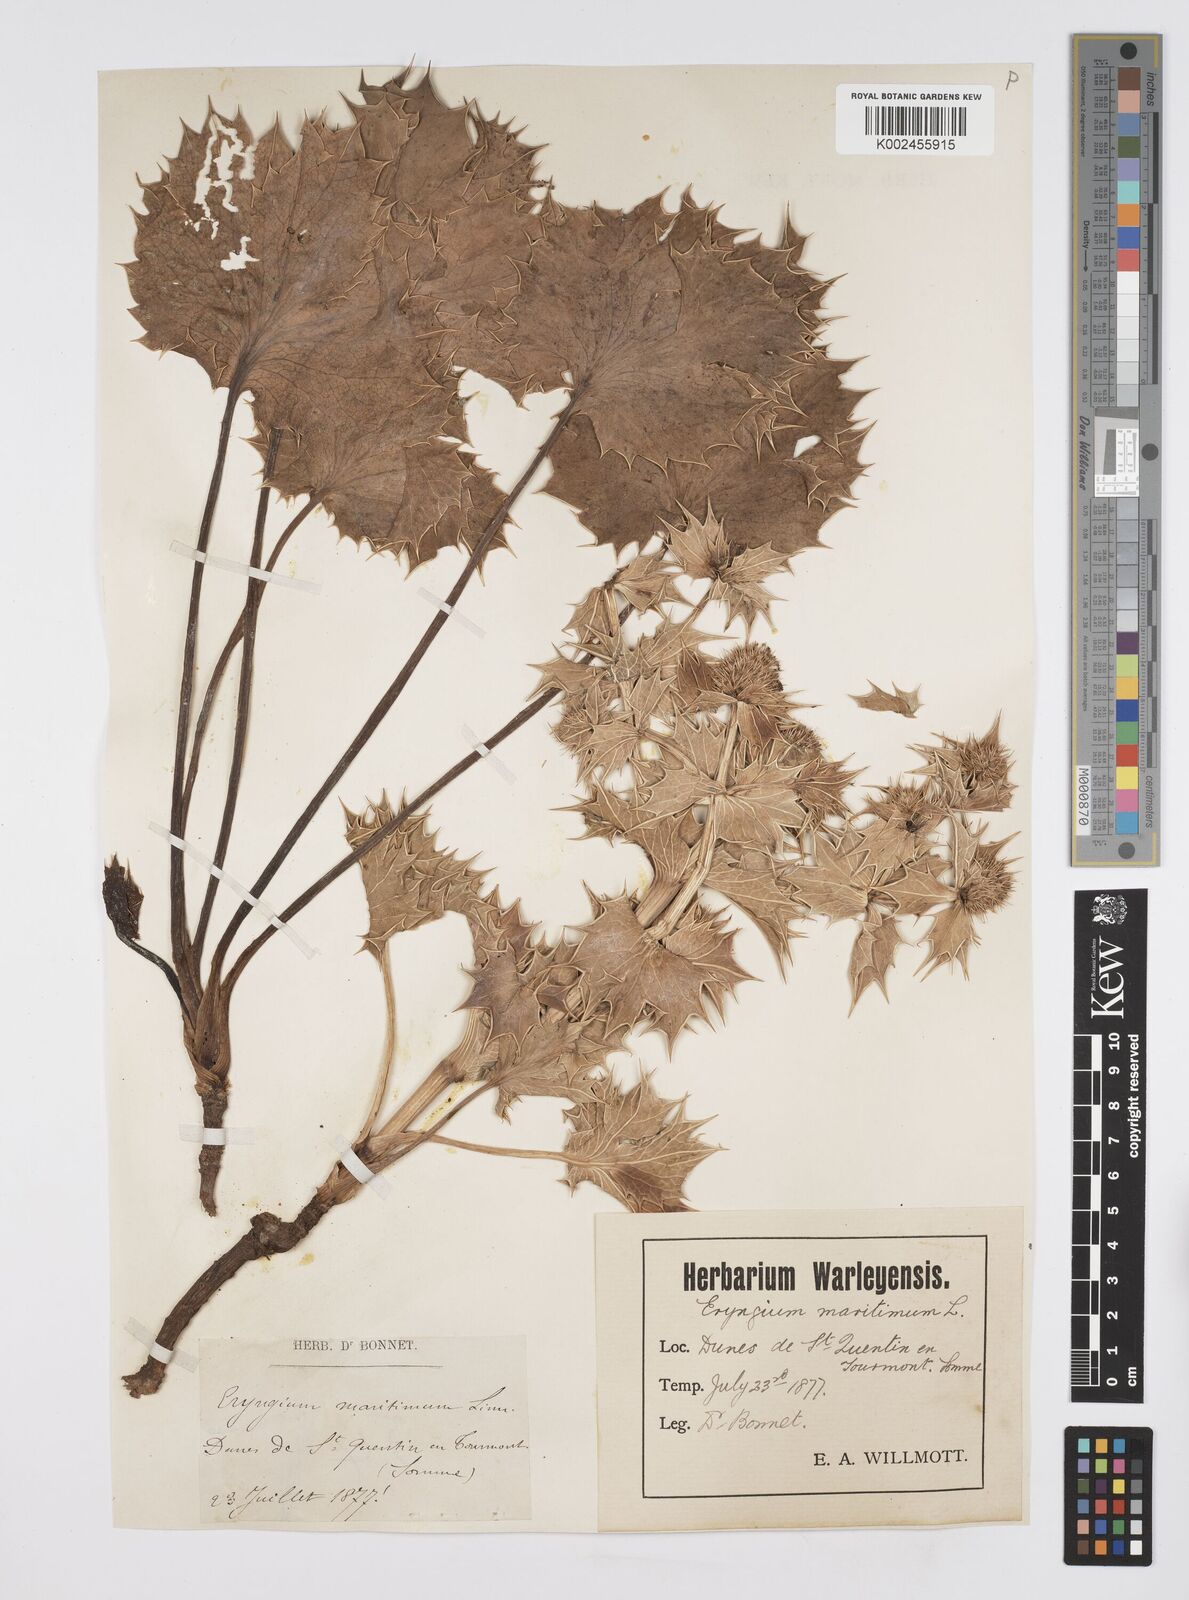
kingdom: Plantae
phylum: Tracheophyta
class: Magnoliopsida
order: Apiales
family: Apiaceae
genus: Eryngium
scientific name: Eryngium maritimum
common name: Sea-holly
